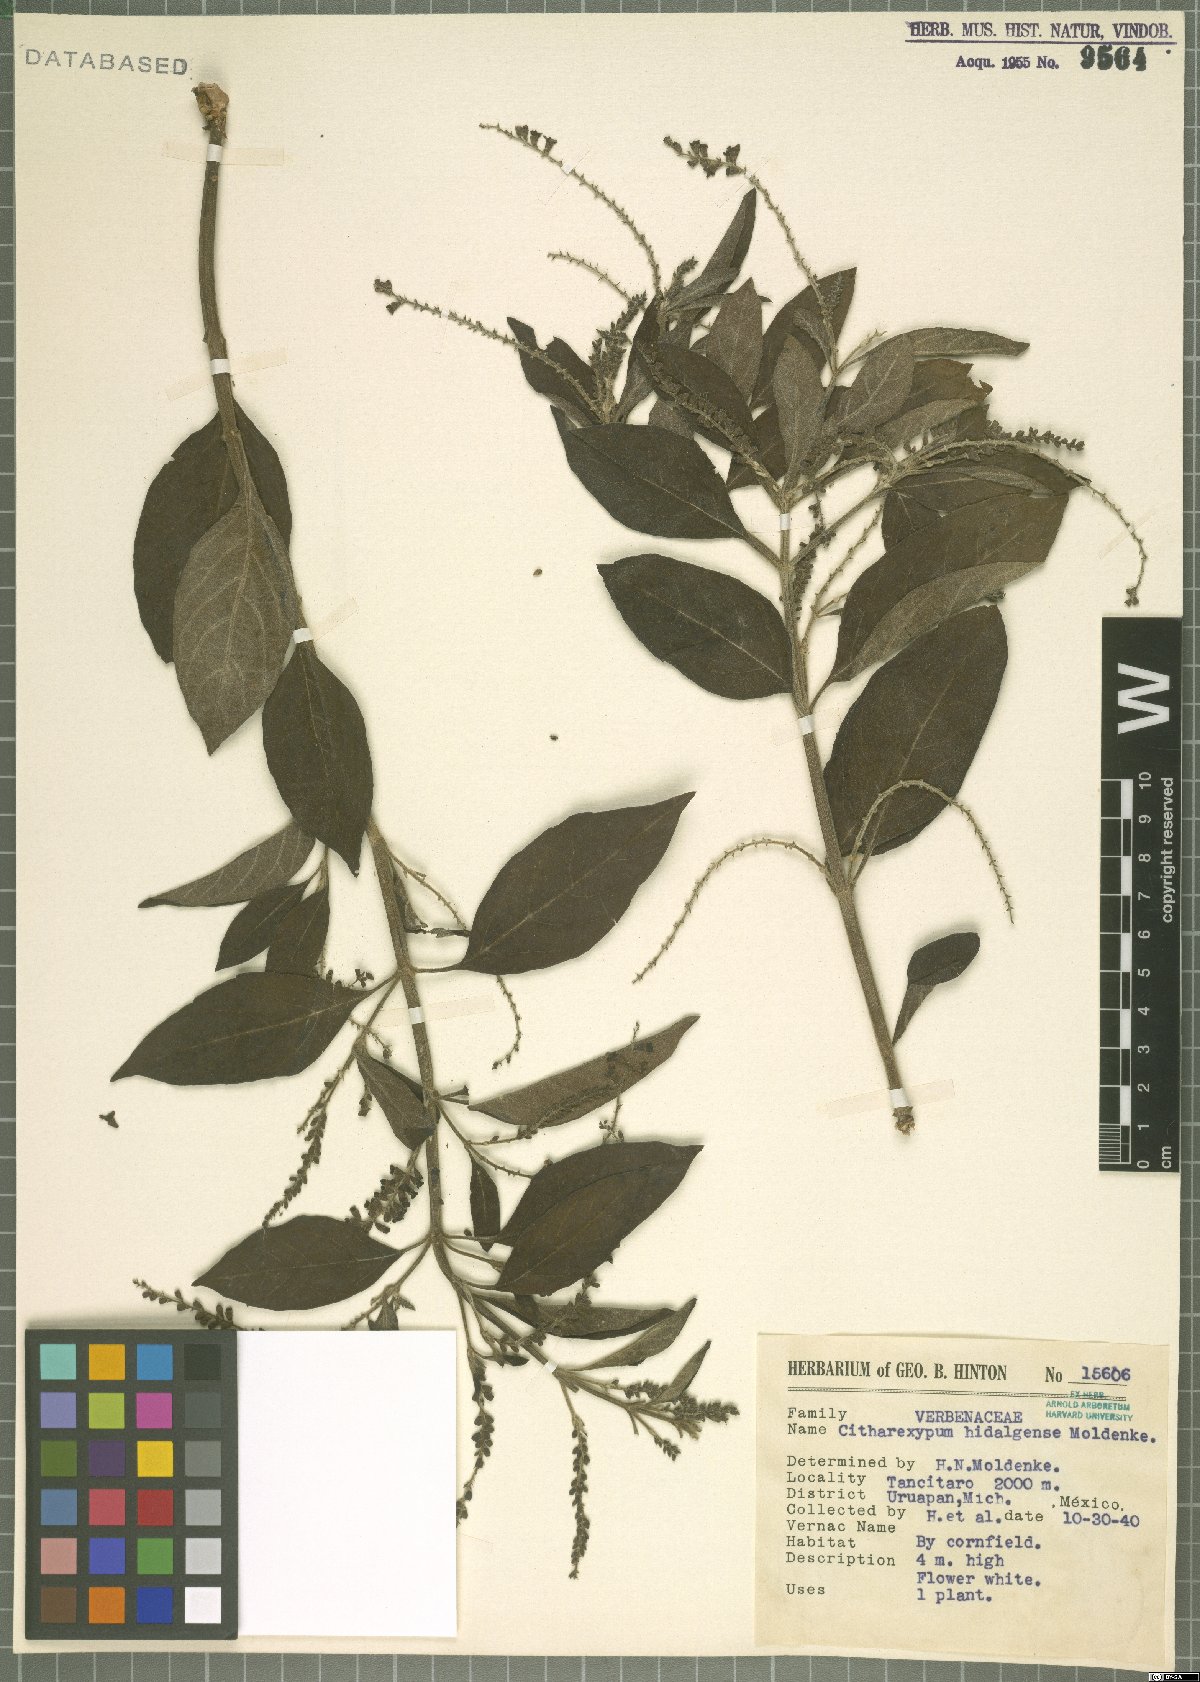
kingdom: Plantae
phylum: Tracheophyta
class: Magnoliopsida
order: Lamiales
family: Verbenaceae
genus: Citharexylum
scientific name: Citharexylum hidalgense
